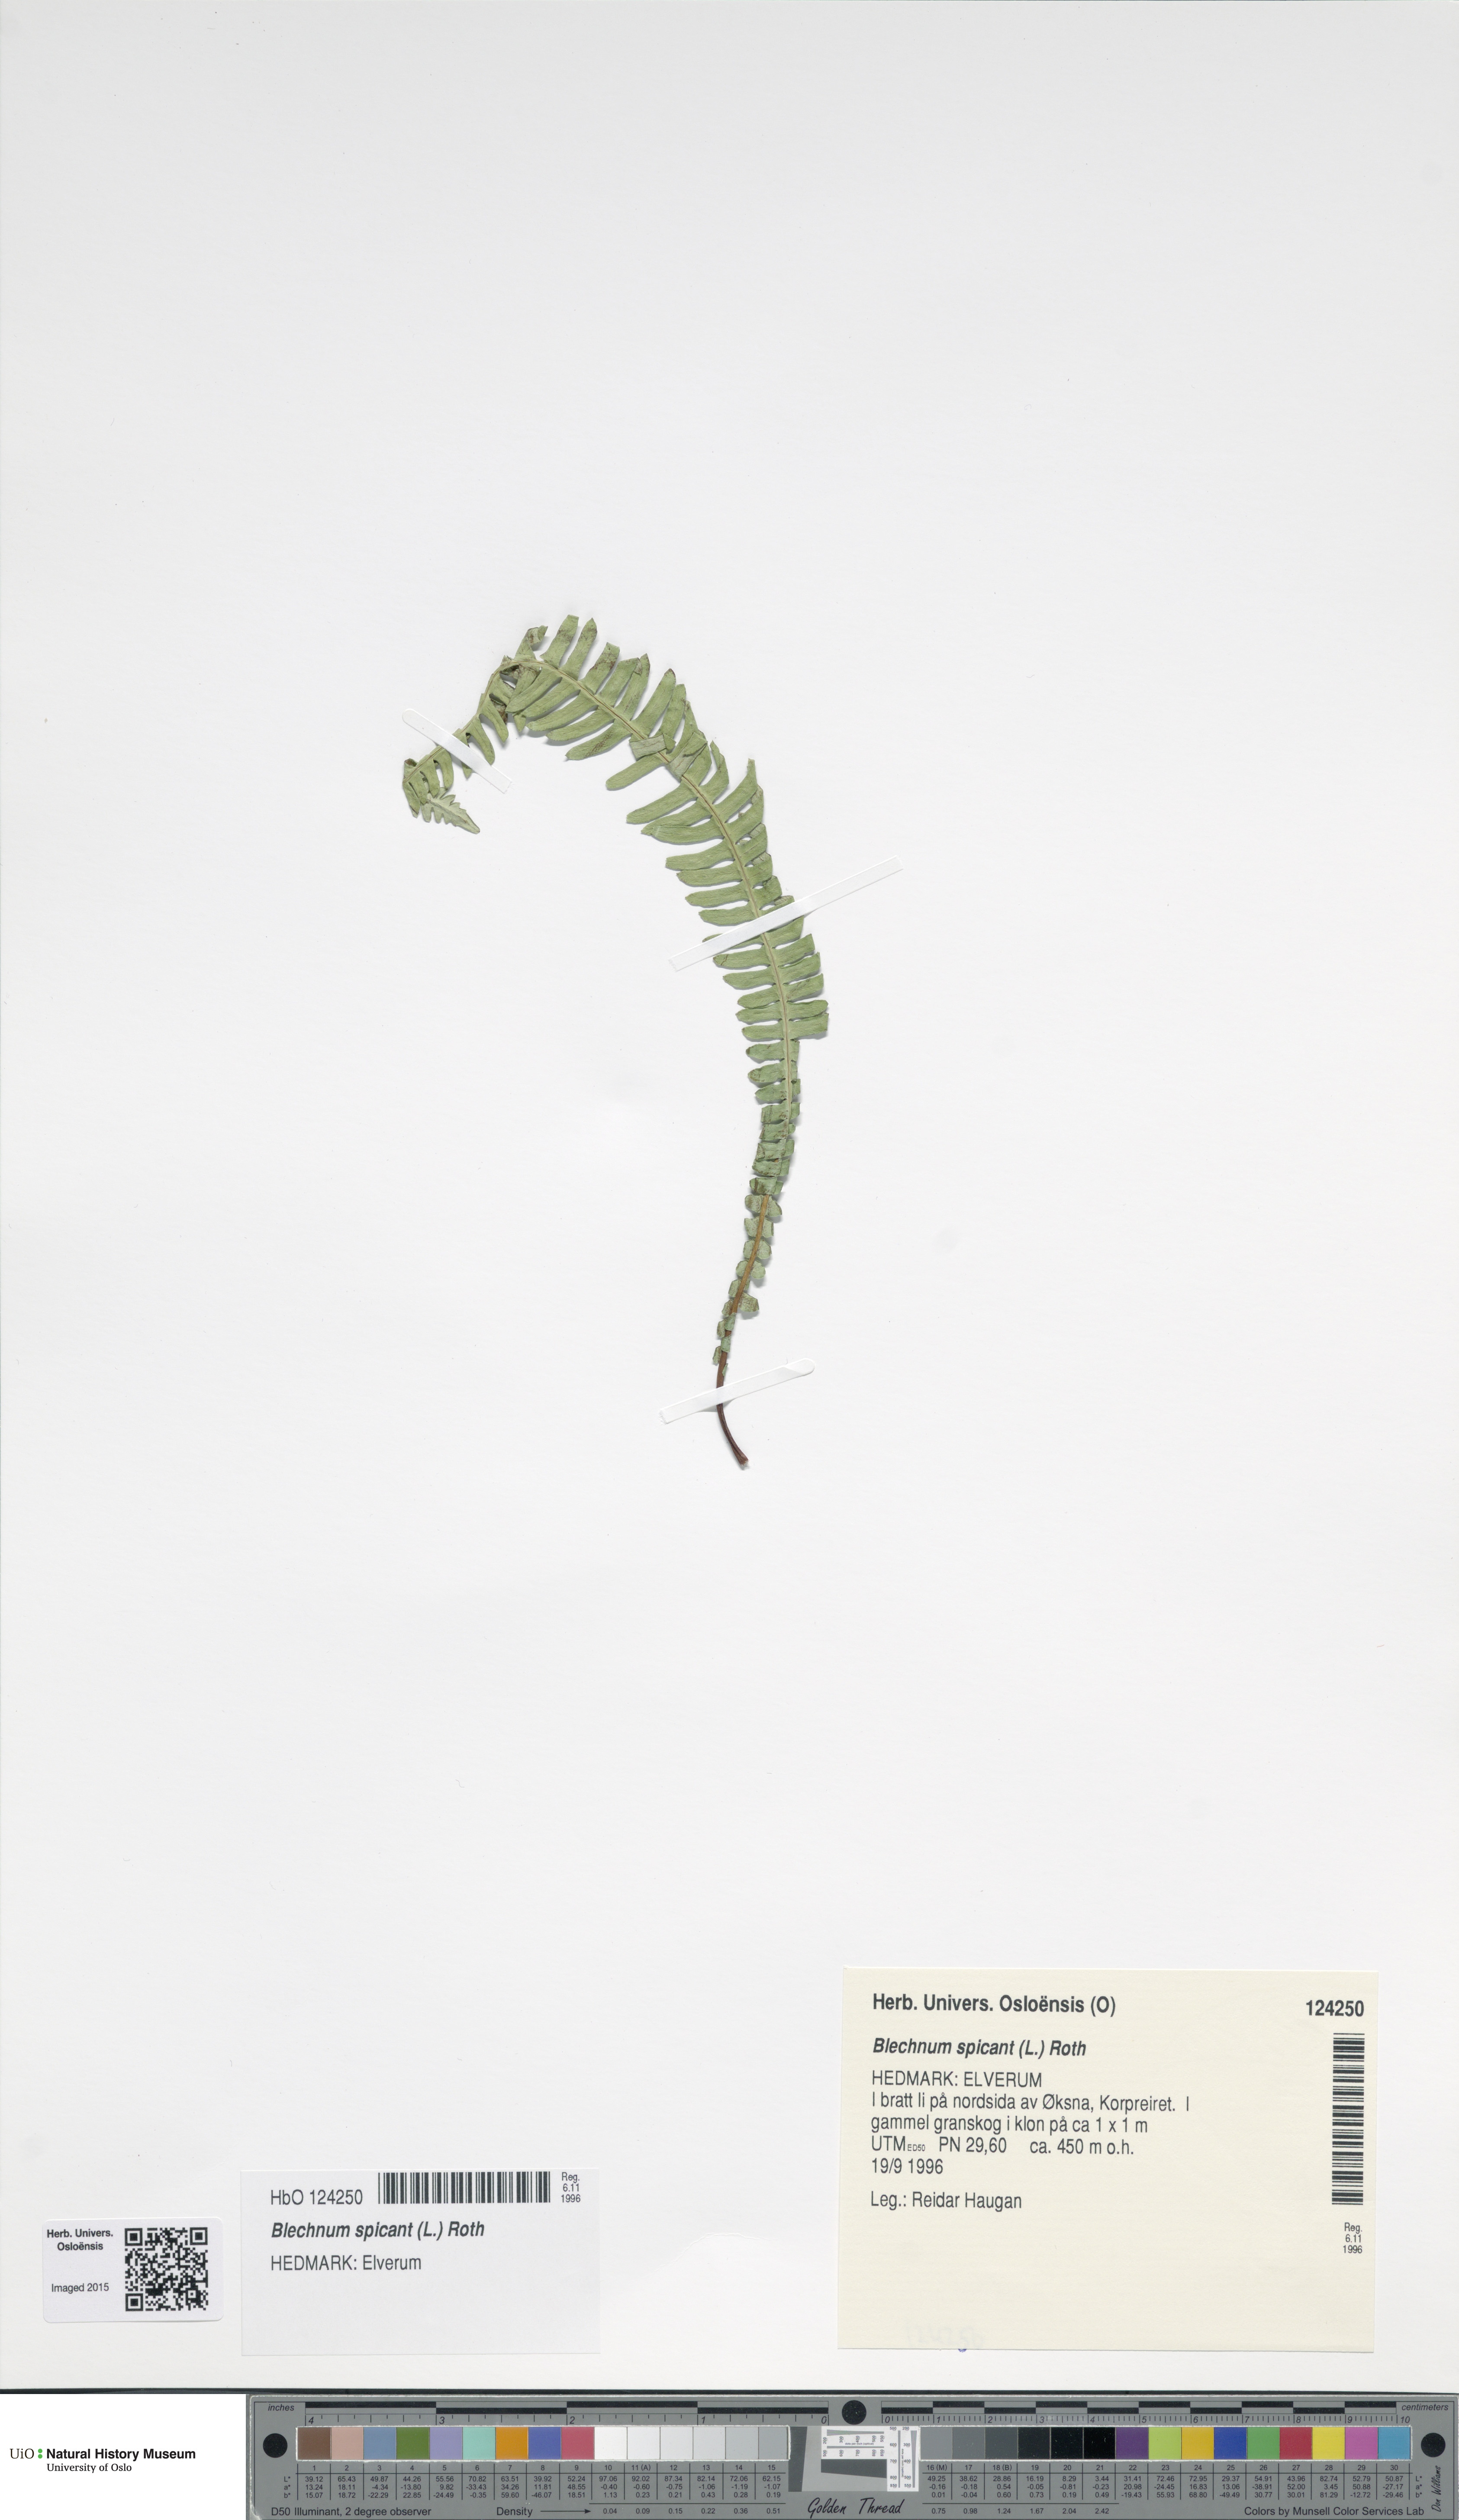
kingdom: Plantae
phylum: Tracheophyta
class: Polypodiopsida
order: Polypodiales
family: Blechnaceae
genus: Struthiopteris
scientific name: Struthiopteris spicant
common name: Deer fern
